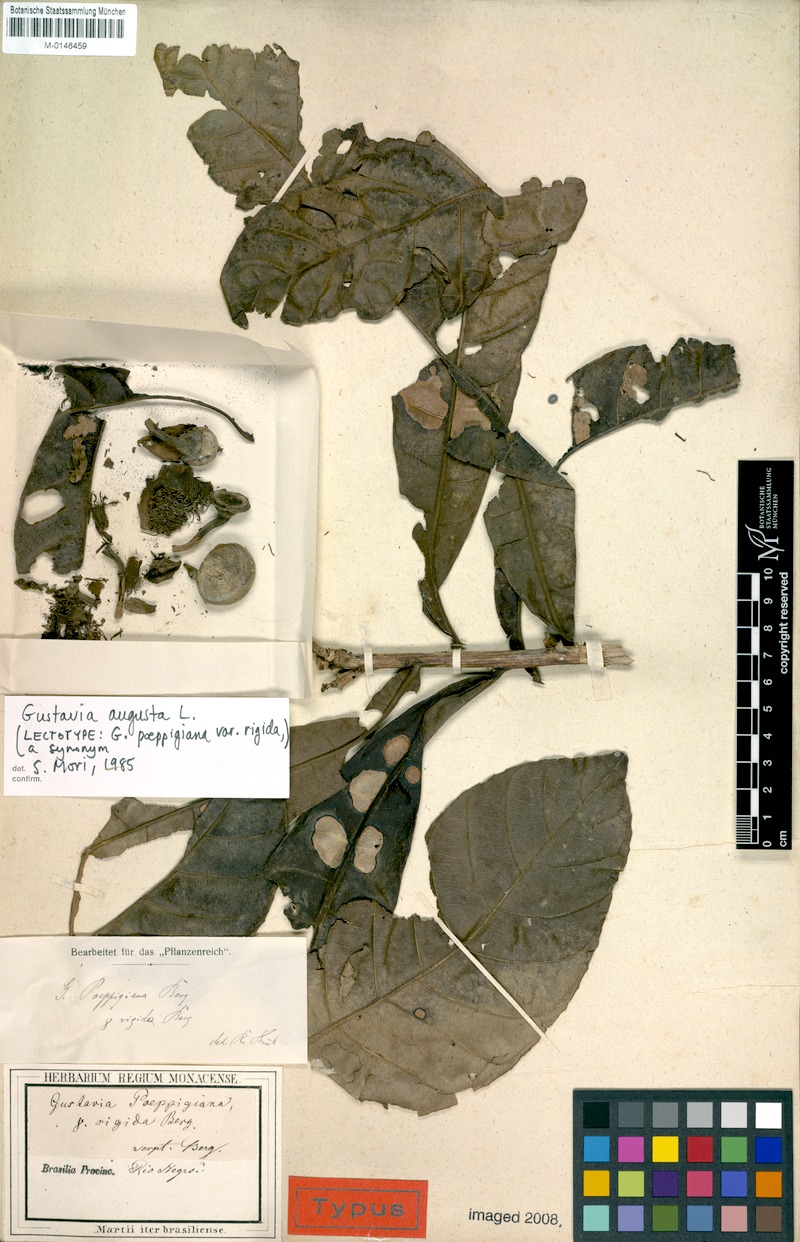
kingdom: Plantae
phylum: Tracheophyta
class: Magnoliopsida
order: Ericales
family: Lecythidaceae
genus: Gustavia
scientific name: Gustavia augusta
